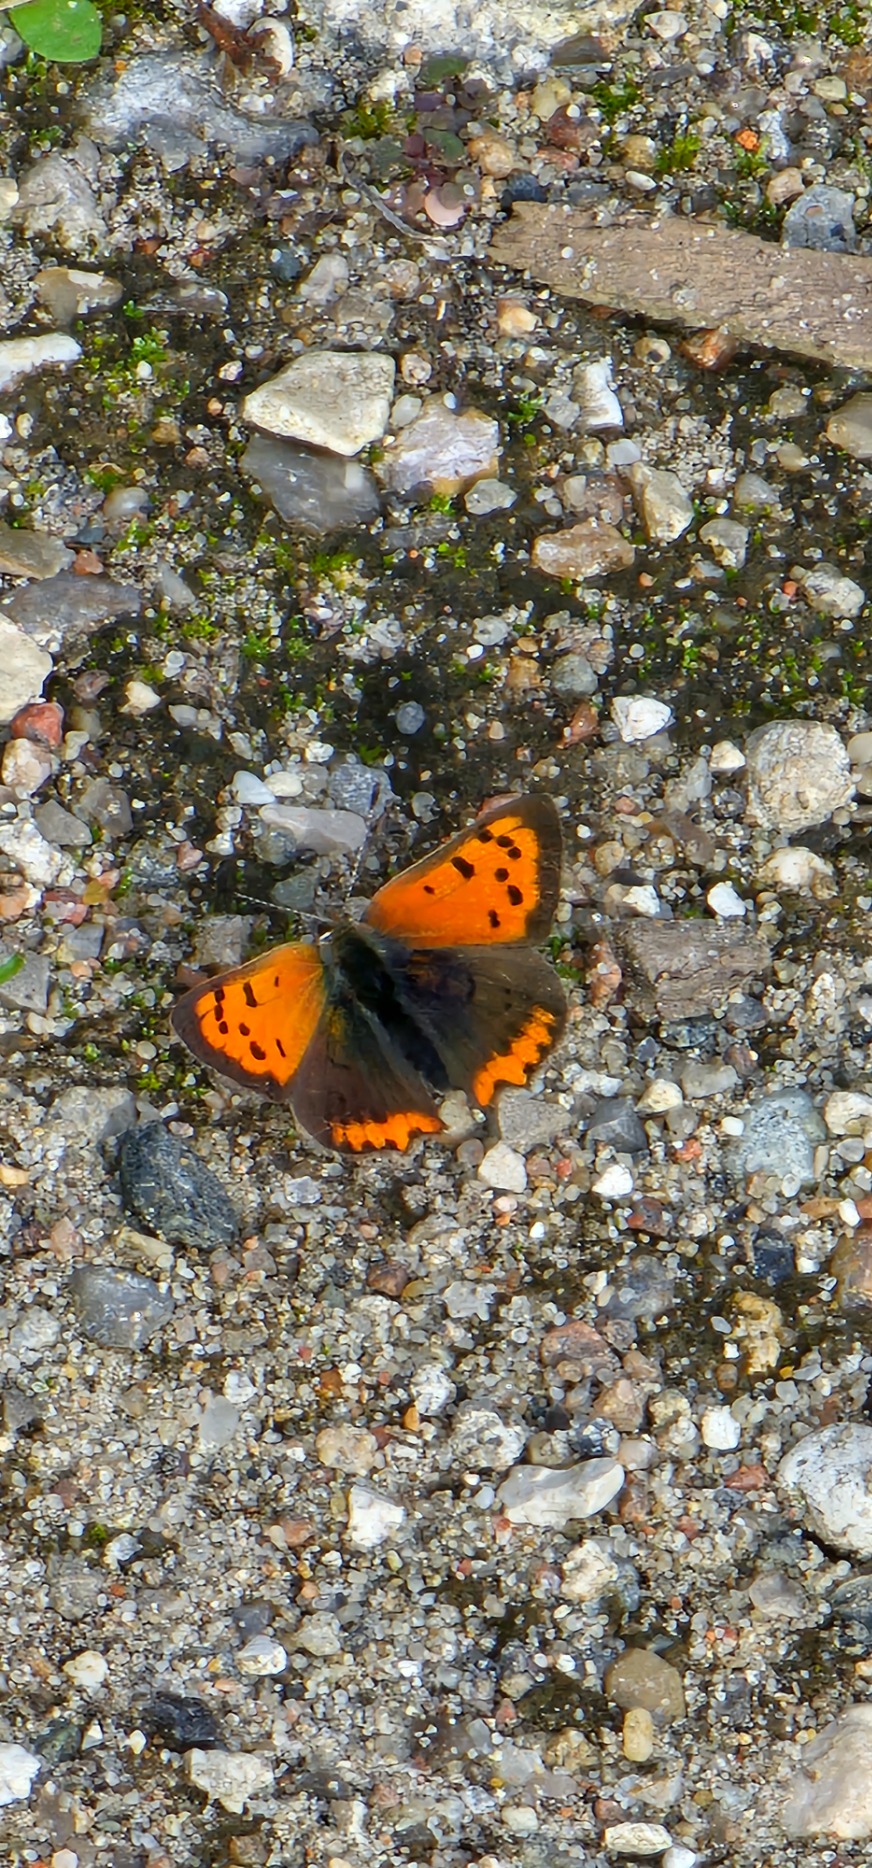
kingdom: Animalia
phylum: Arthropoda
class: Insecta
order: Lepidoptera
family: Lycaenidae
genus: Lycaena
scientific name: Lycaena phlaeas
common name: Lille ildfugl
